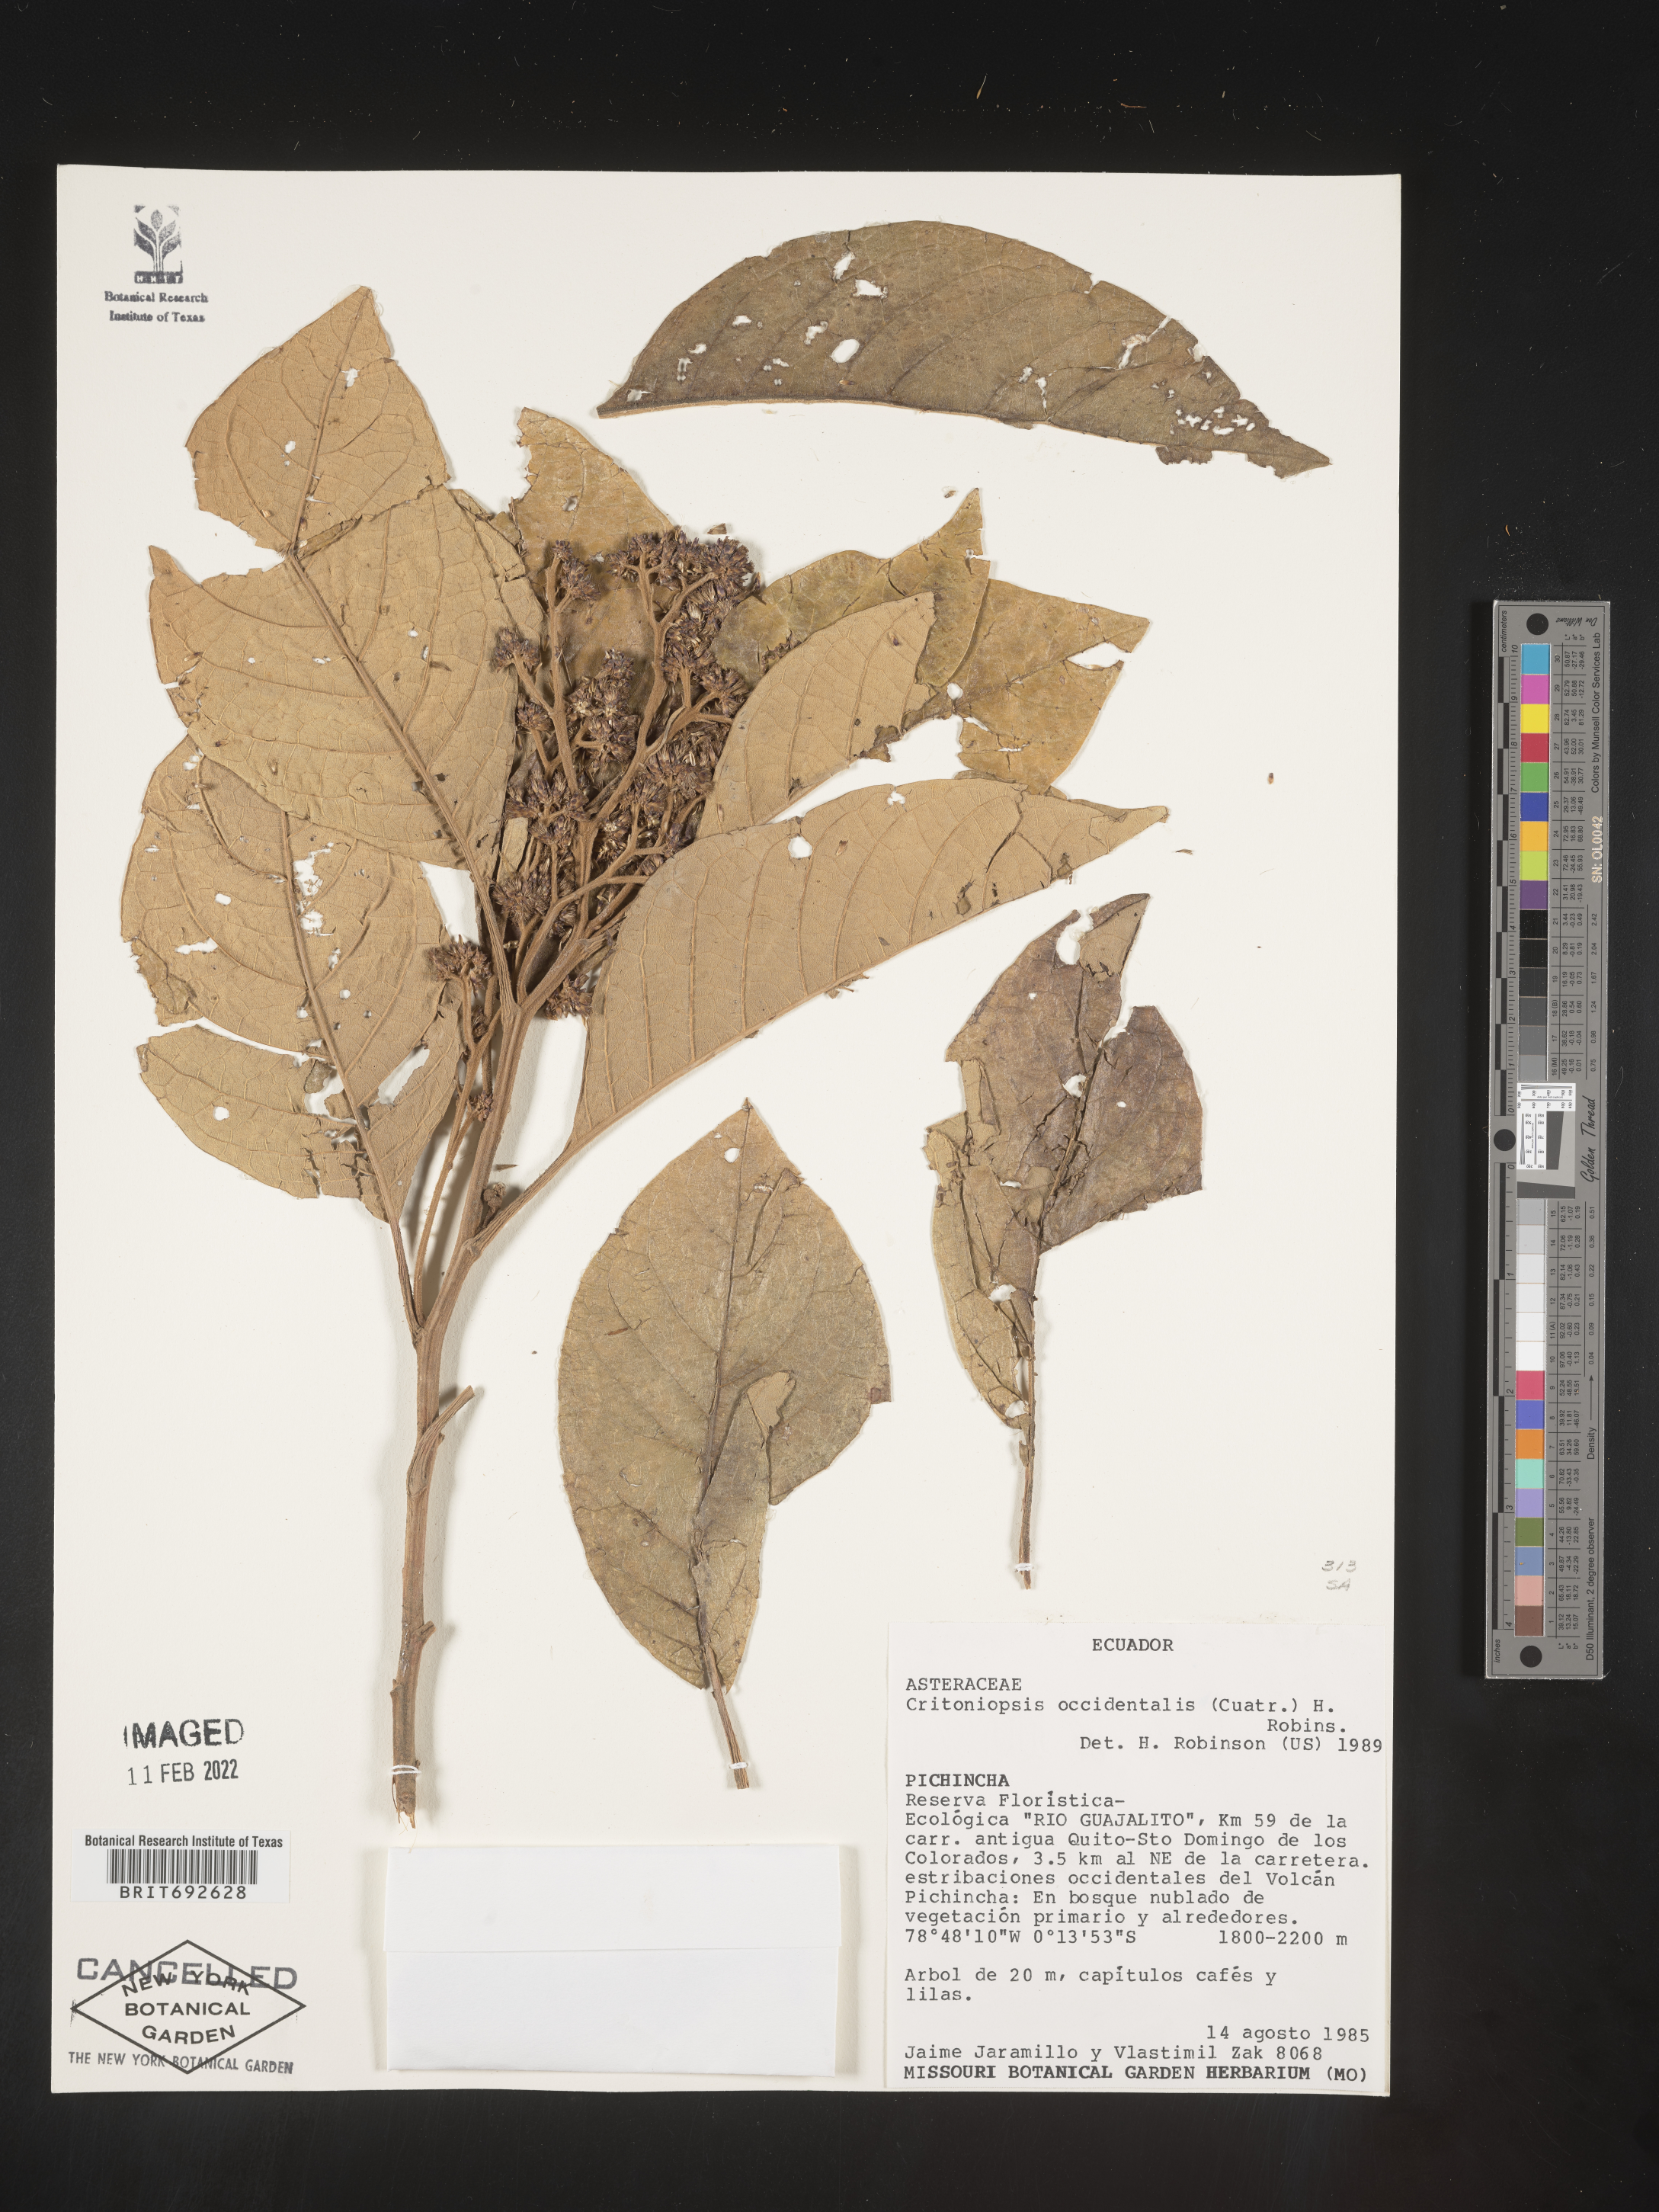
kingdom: Plantae
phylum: Tracheophyta
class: Magnoliopsida
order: Asterales
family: Asteraceae
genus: Critoniopsis
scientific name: Critoniopsis
